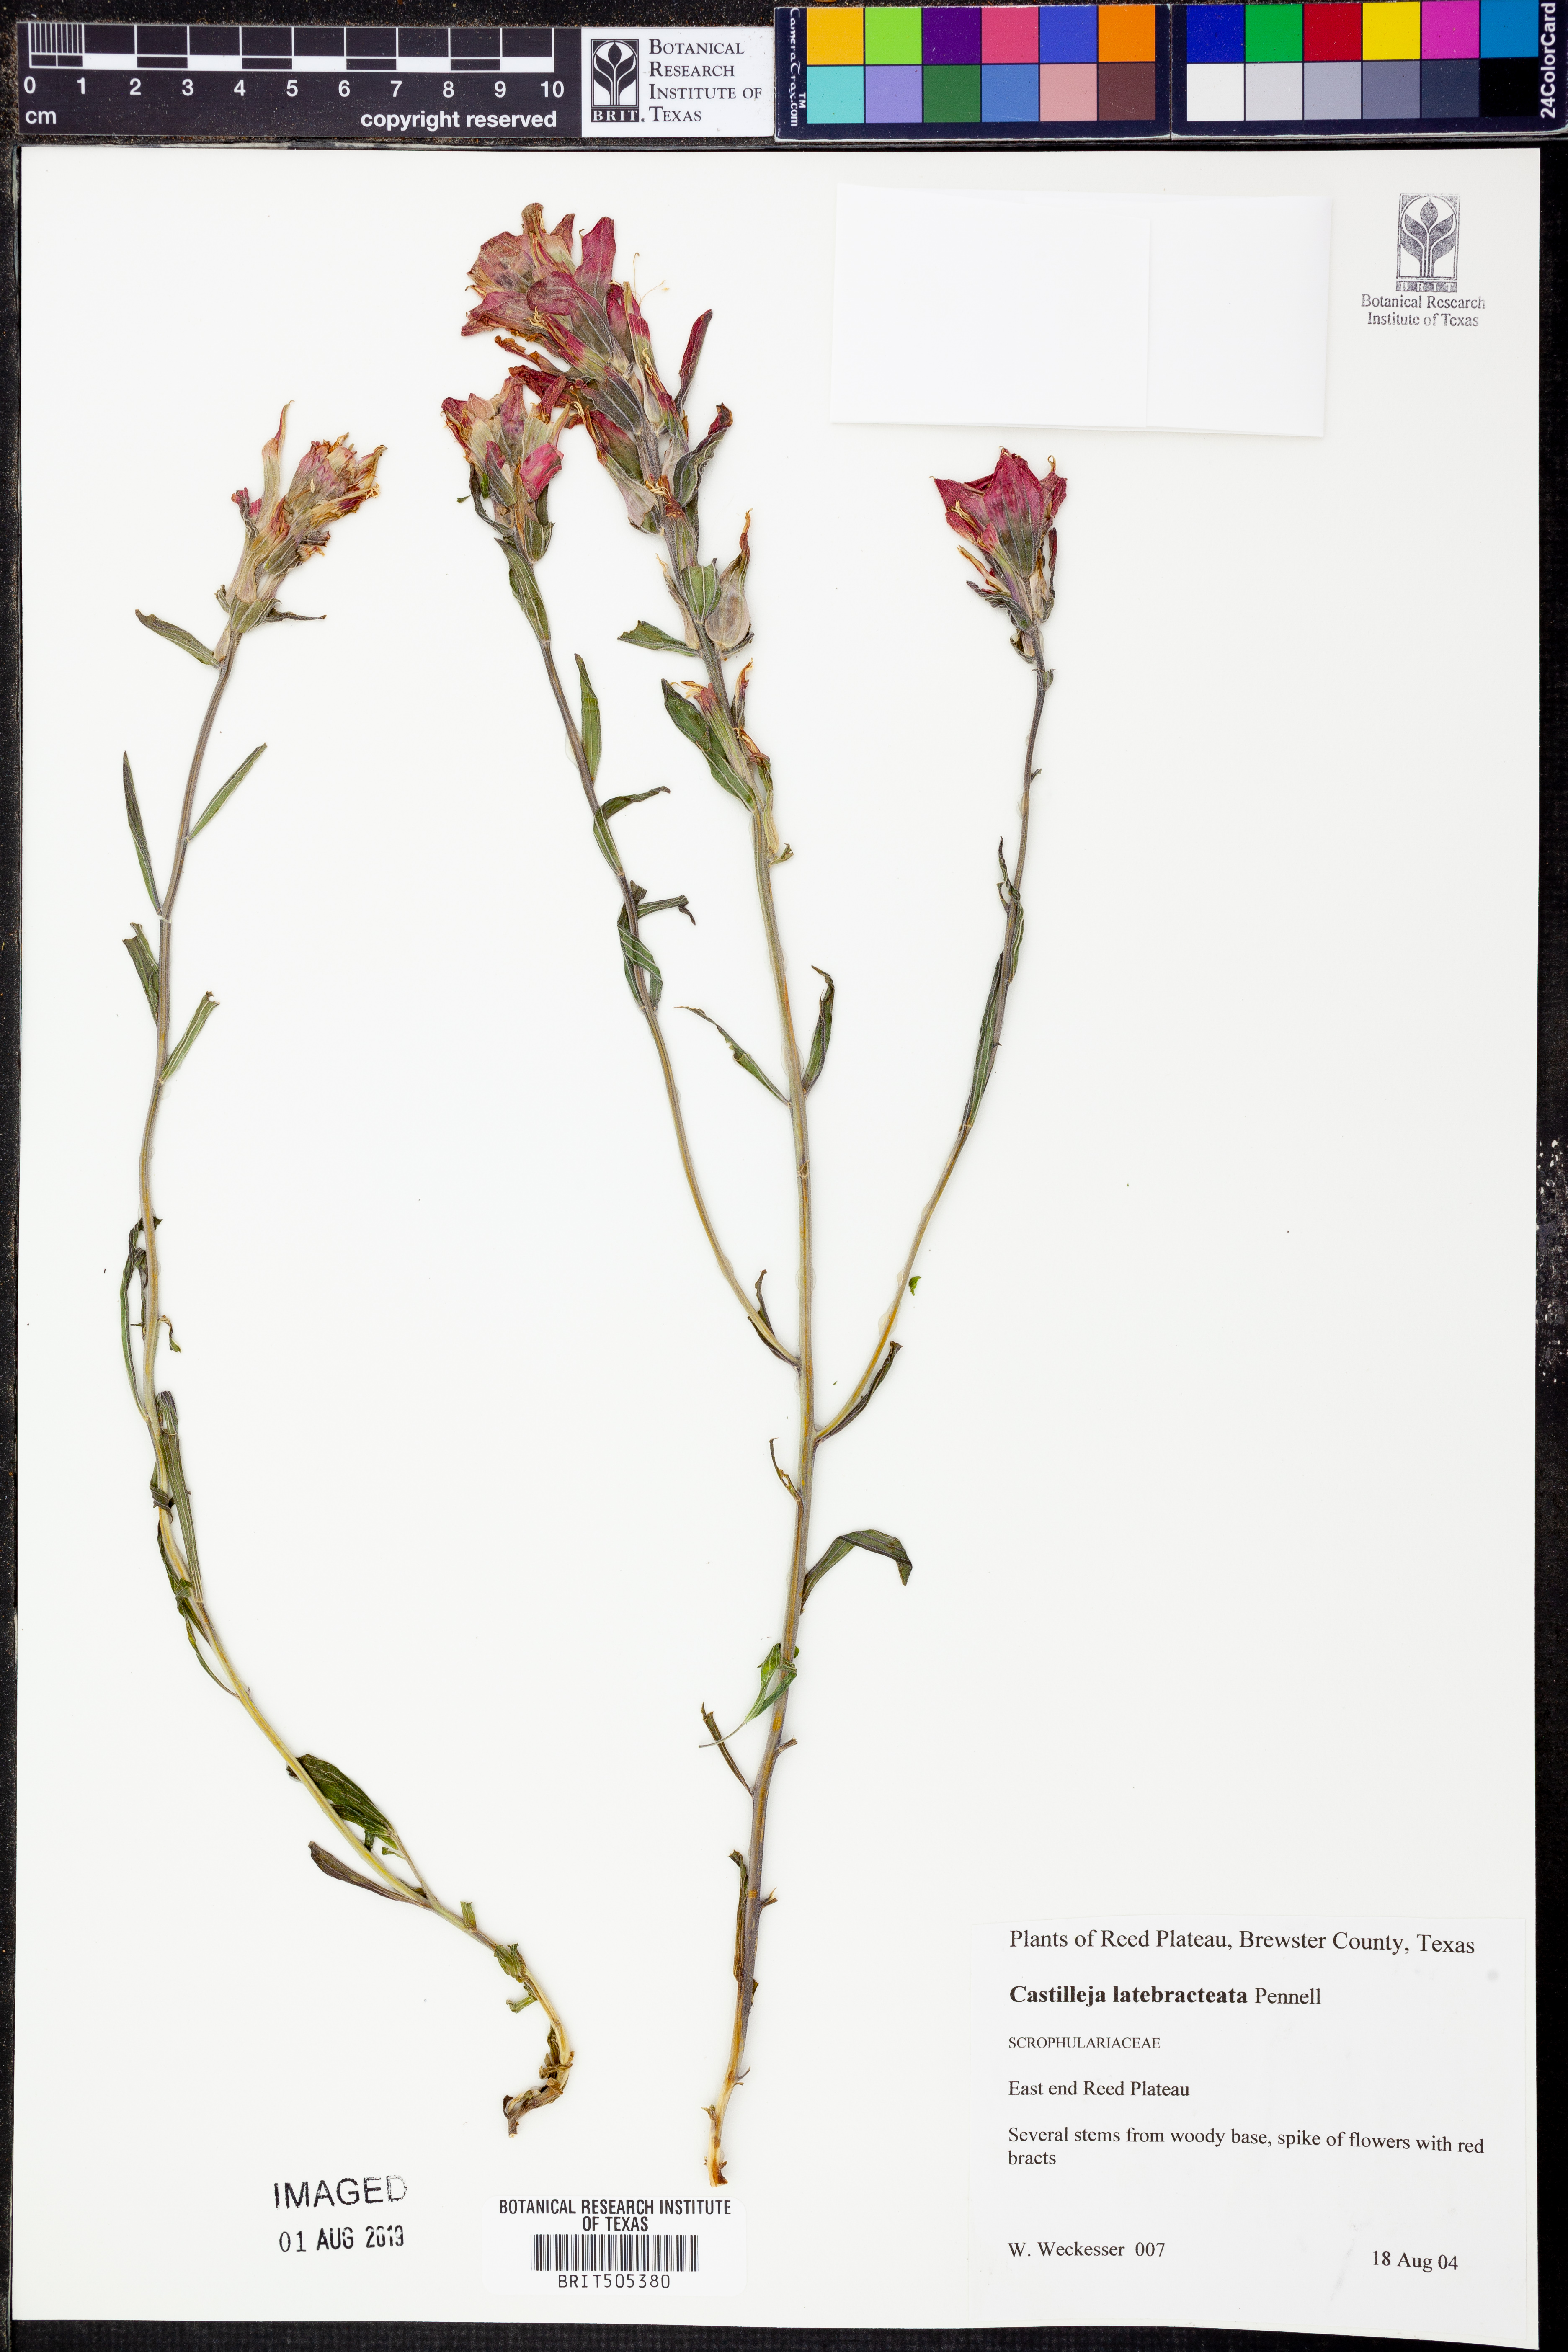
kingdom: Plantae
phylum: Tracheophyta
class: Magnoliopsida
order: Lamiales
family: Orobanchaceae
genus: Castilleja
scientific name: Castilleja rigida
